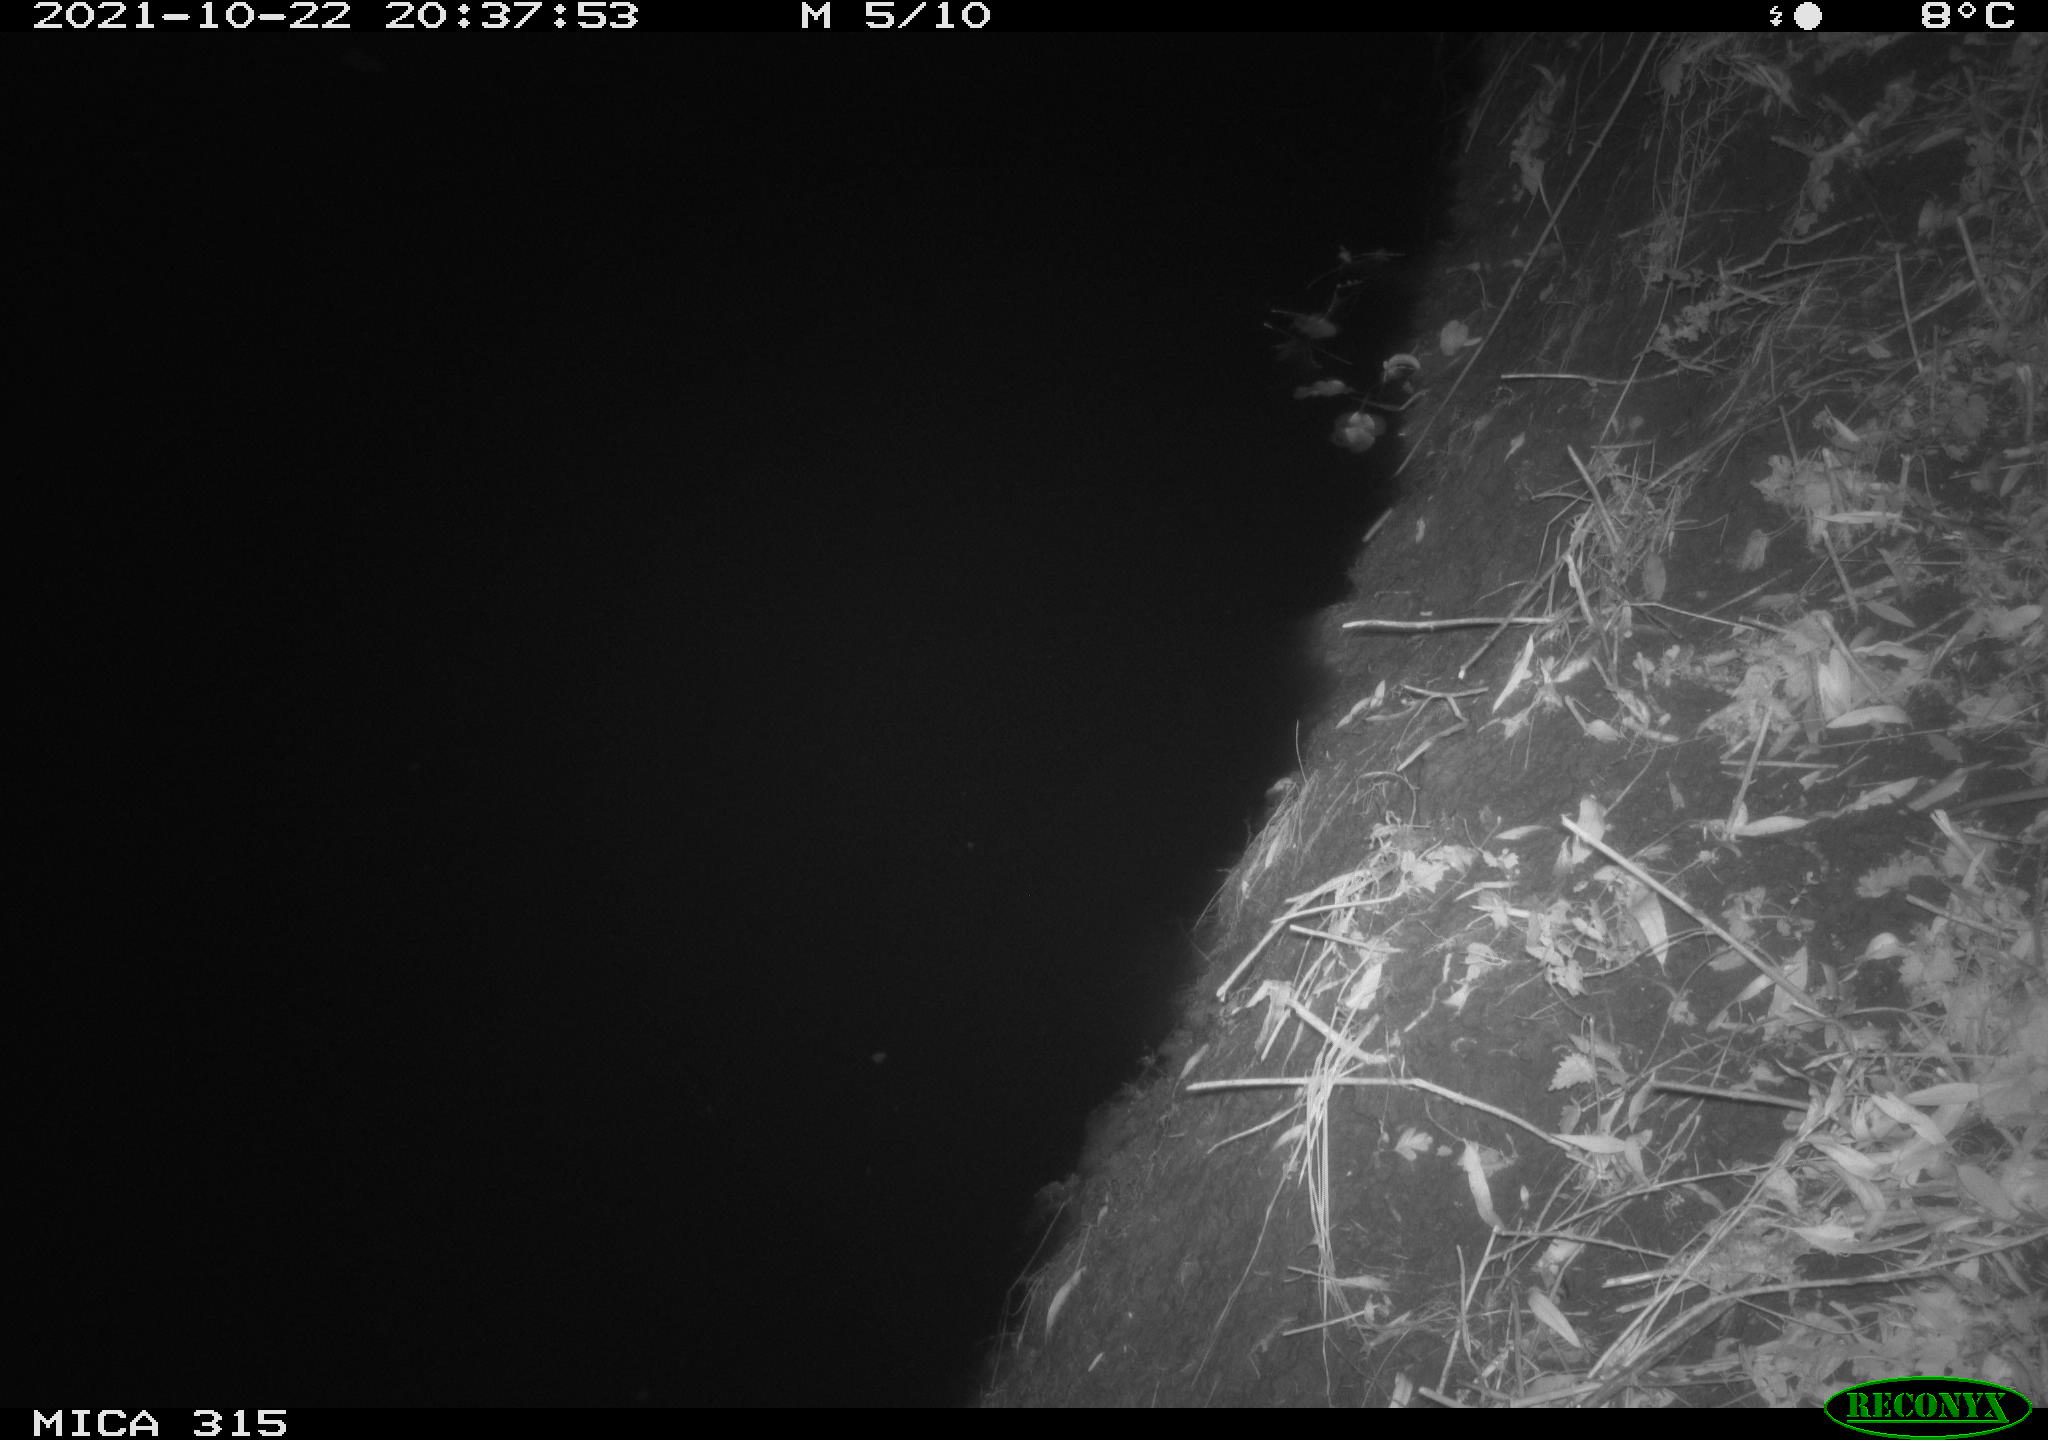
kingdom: Animalia
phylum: Chordata
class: Mammalia
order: Rodentia
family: Muridae
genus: Rattus
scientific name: Rattus norvegicus
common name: Brown rat
